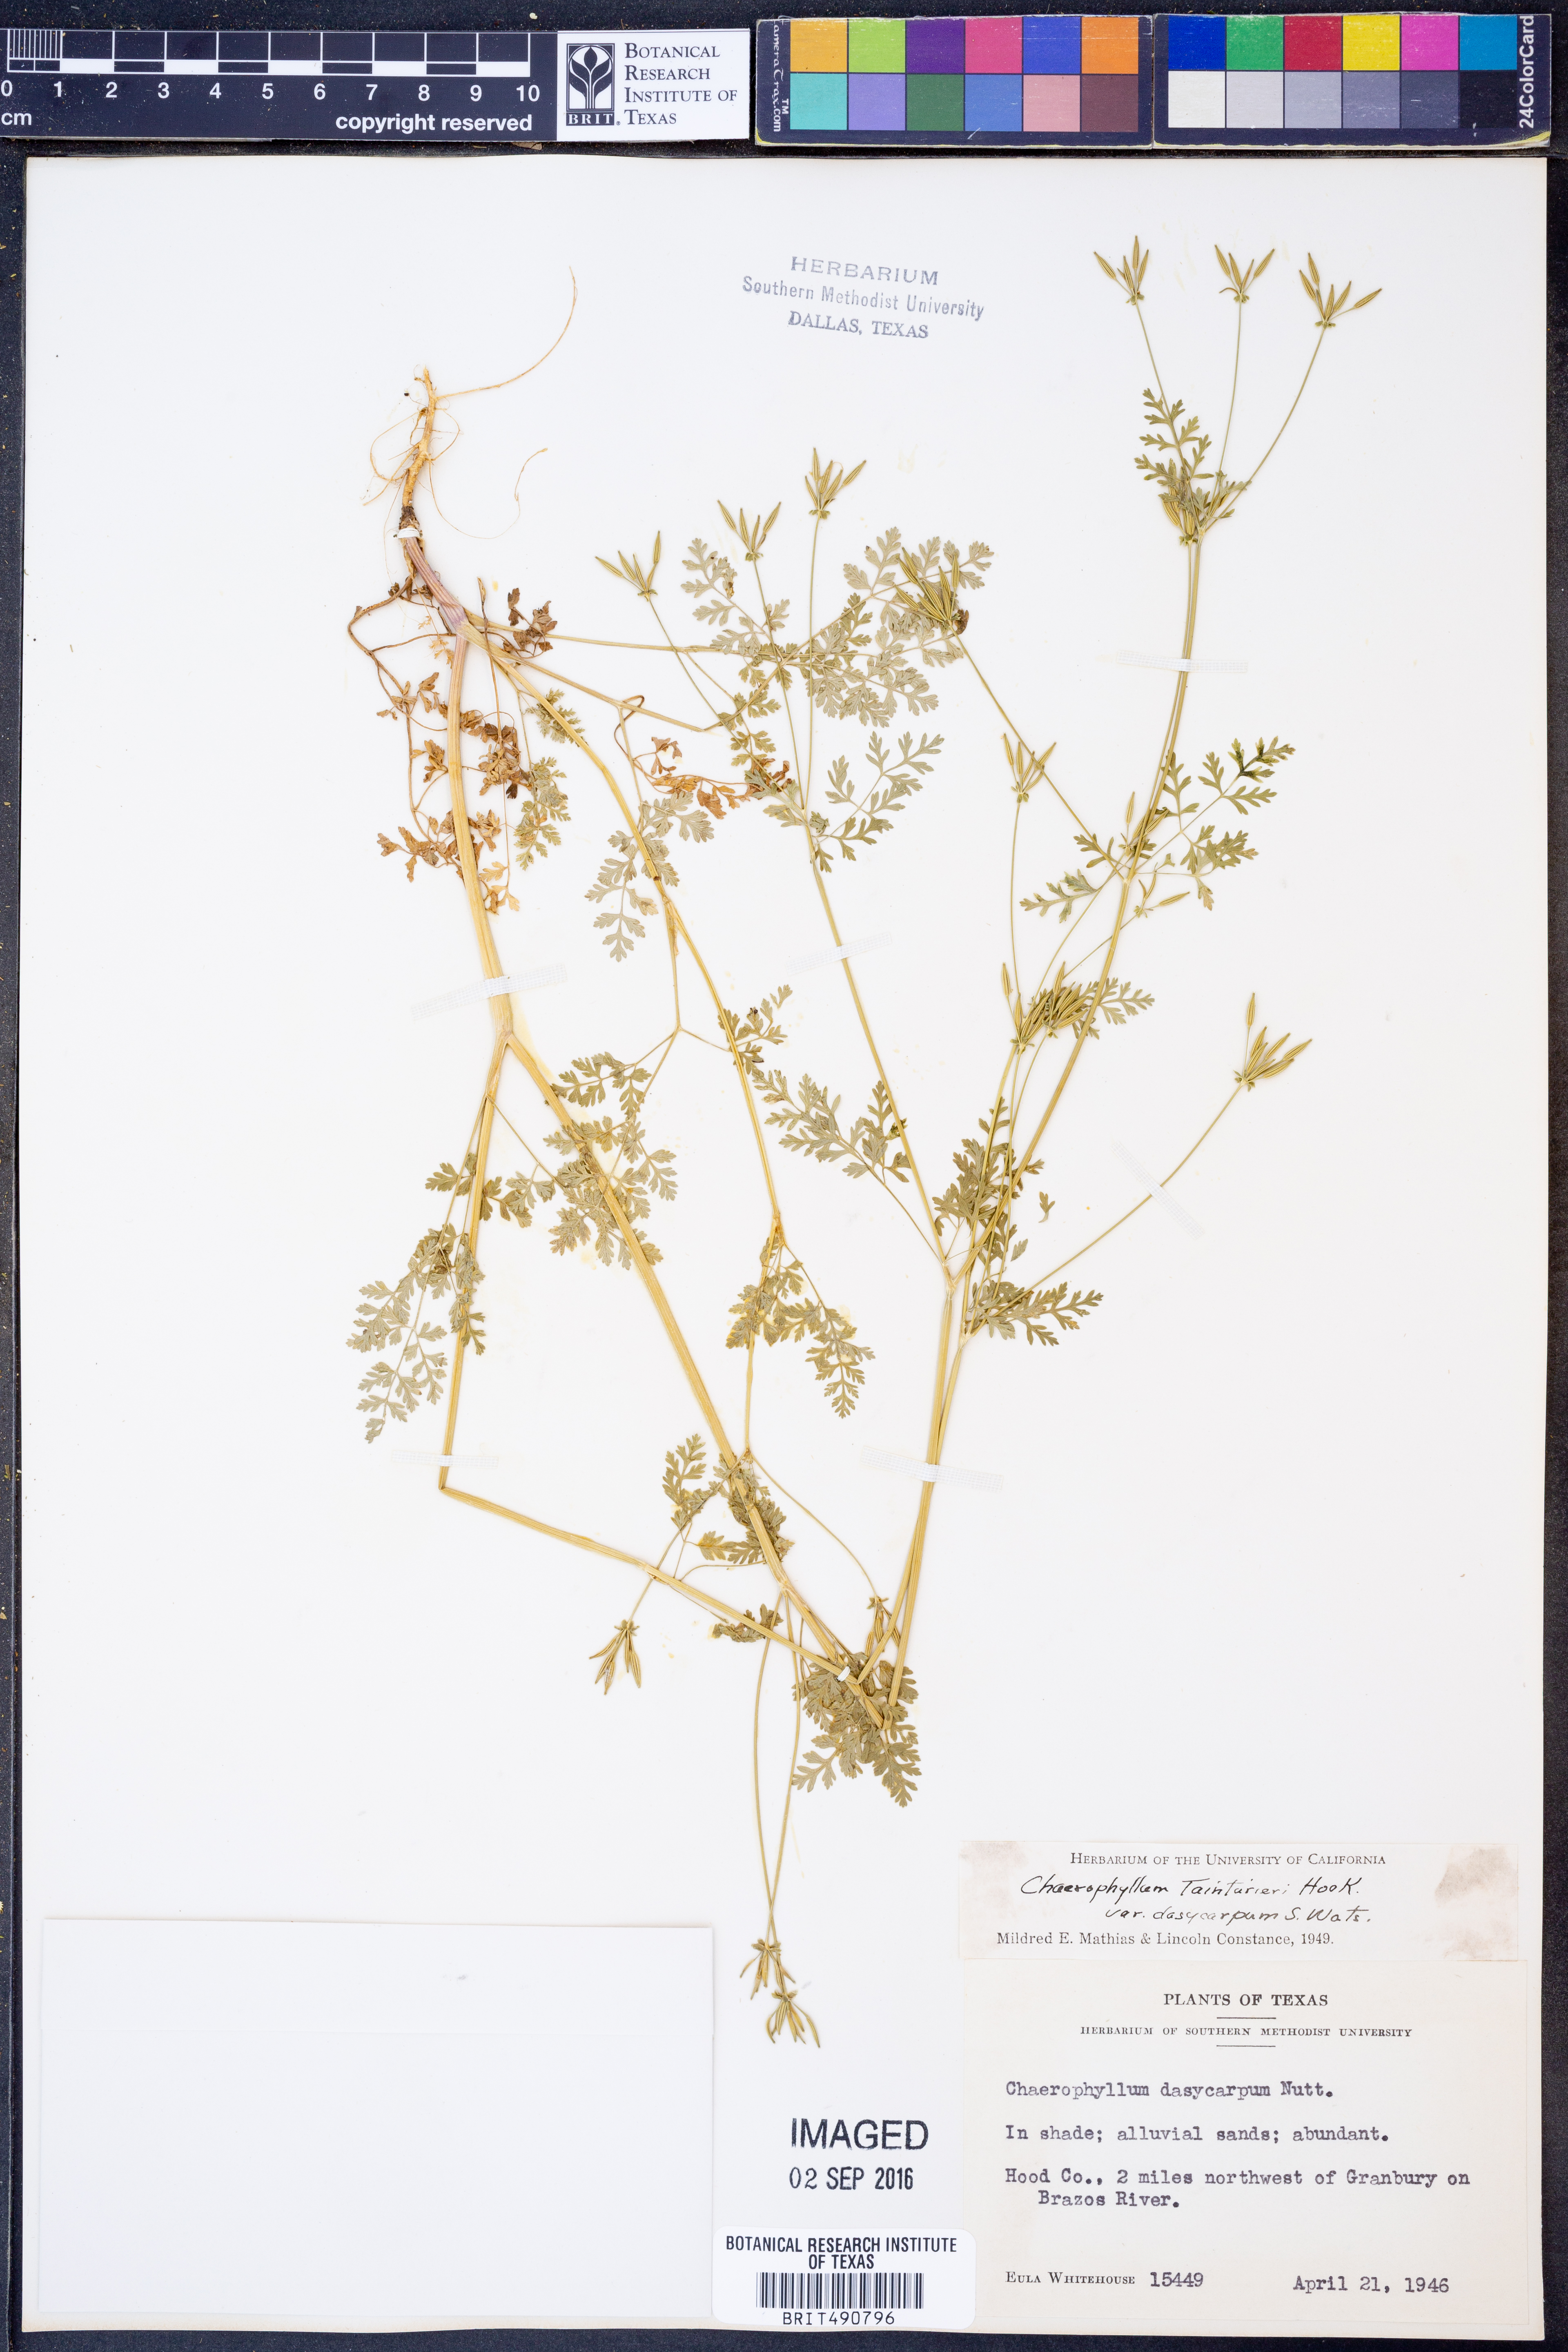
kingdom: Plantae
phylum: Tracheophyta
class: Magnoliopsida
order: Apiales
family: Apiaceae
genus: Chaerophyllum
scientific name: Chaerophyllum dasycarpum
